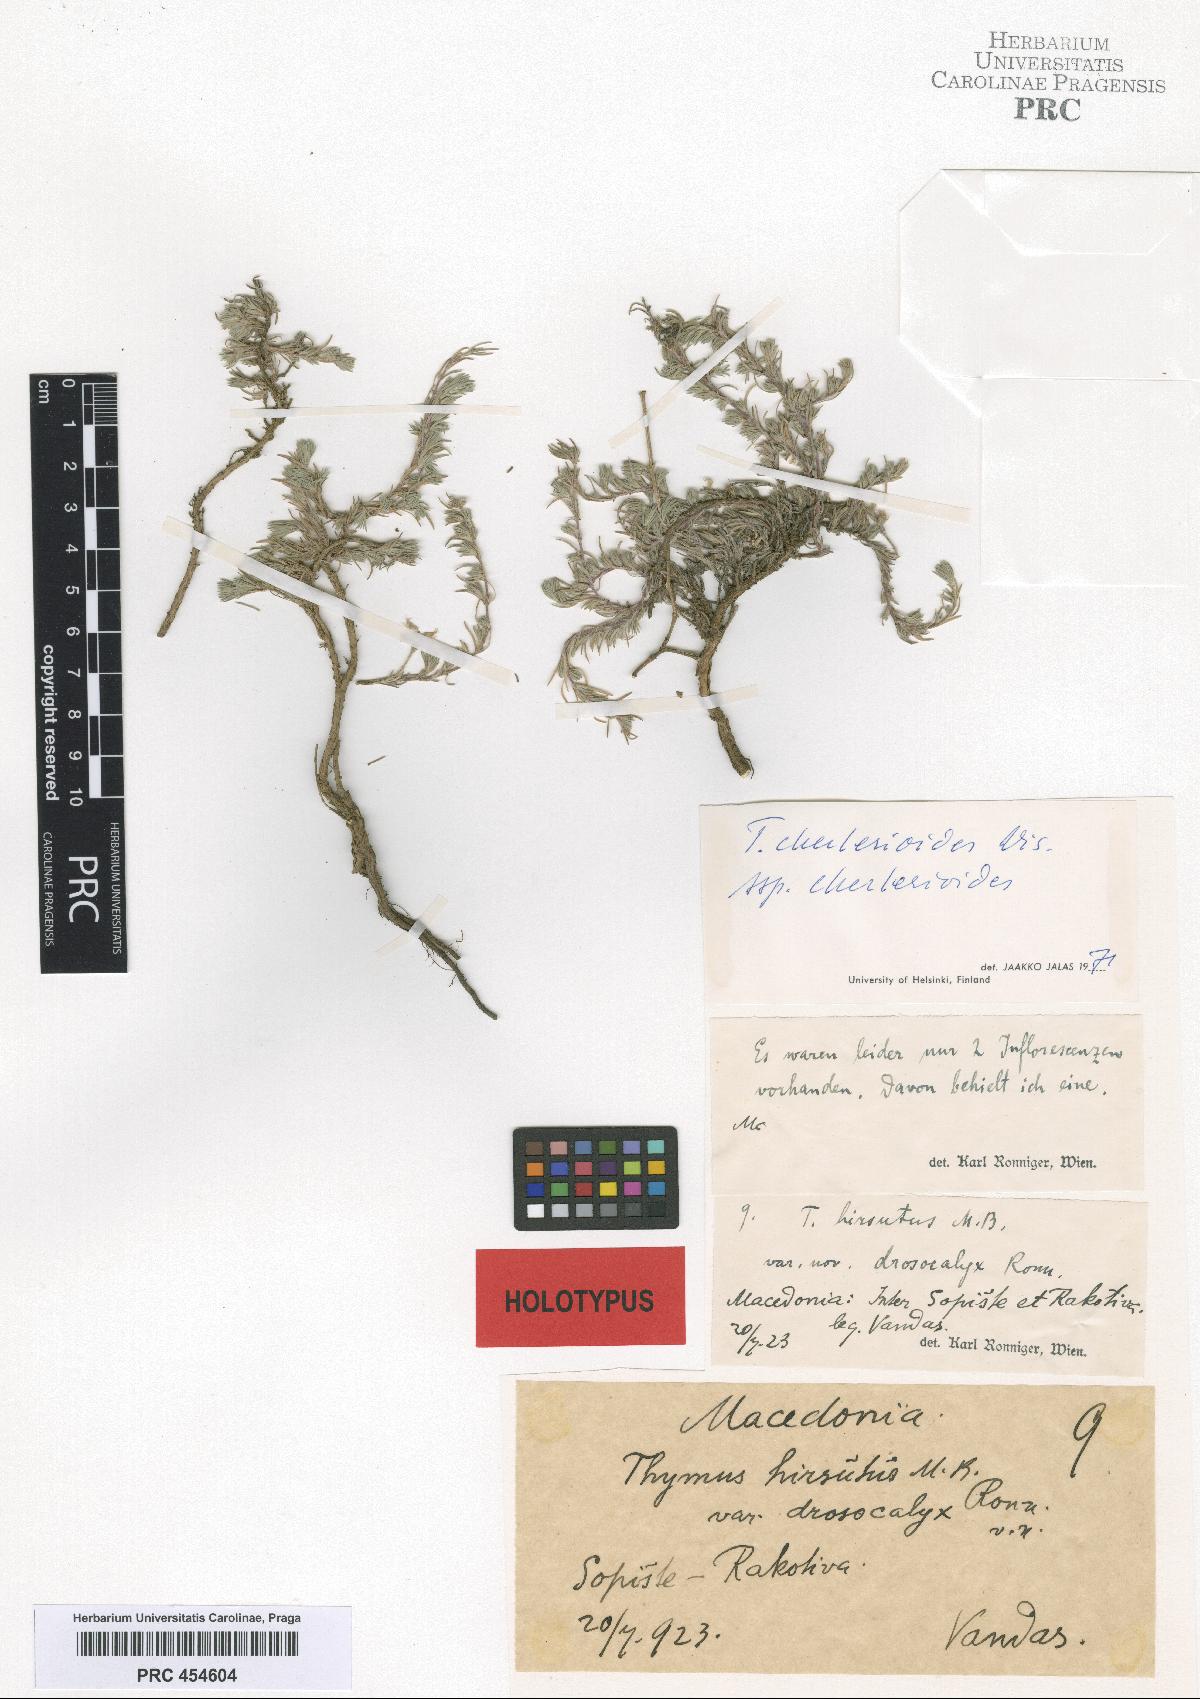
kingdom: Plantae
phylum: Tracheophyta
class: Magnoliopsida
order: Lamiales
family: Lamiaceae
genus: Thymus
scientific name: Thymus cherlerioides
